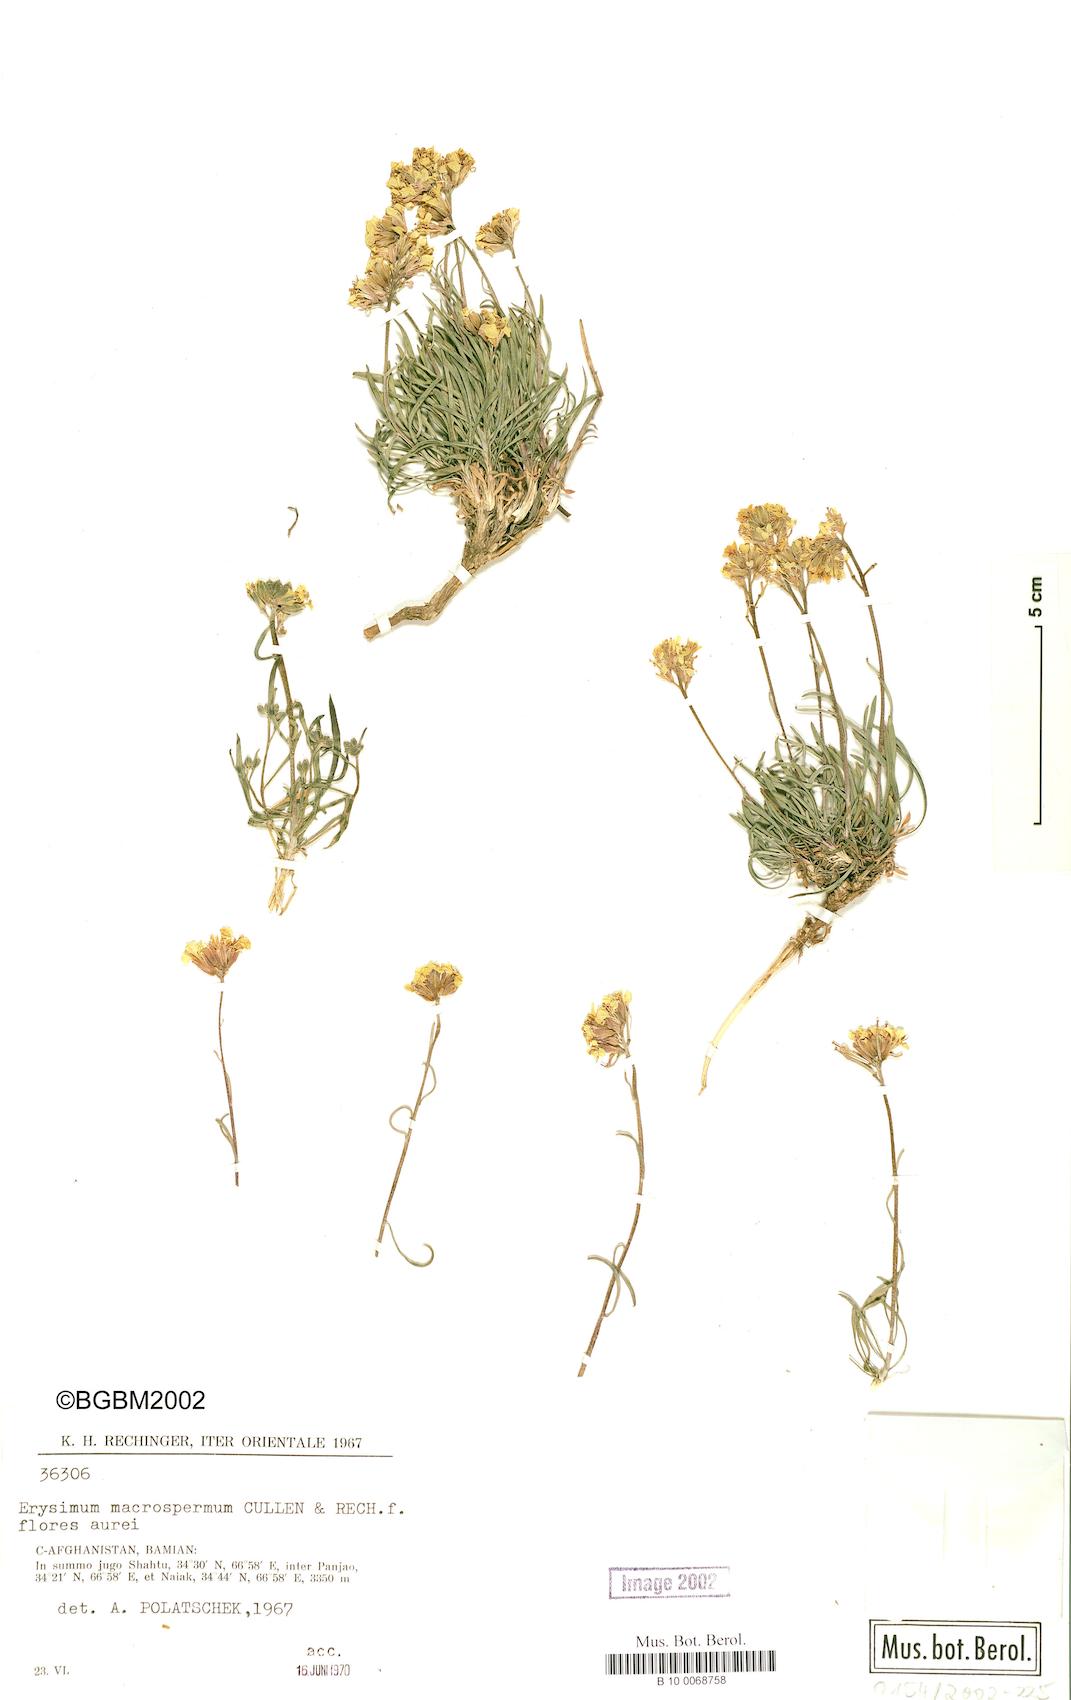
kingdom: Plantae
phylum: Tracheophyta
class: Magnoliopsida
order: Brassicales
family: Brassicaceae
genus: Erysimum
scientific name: Erysimum macrospermum
